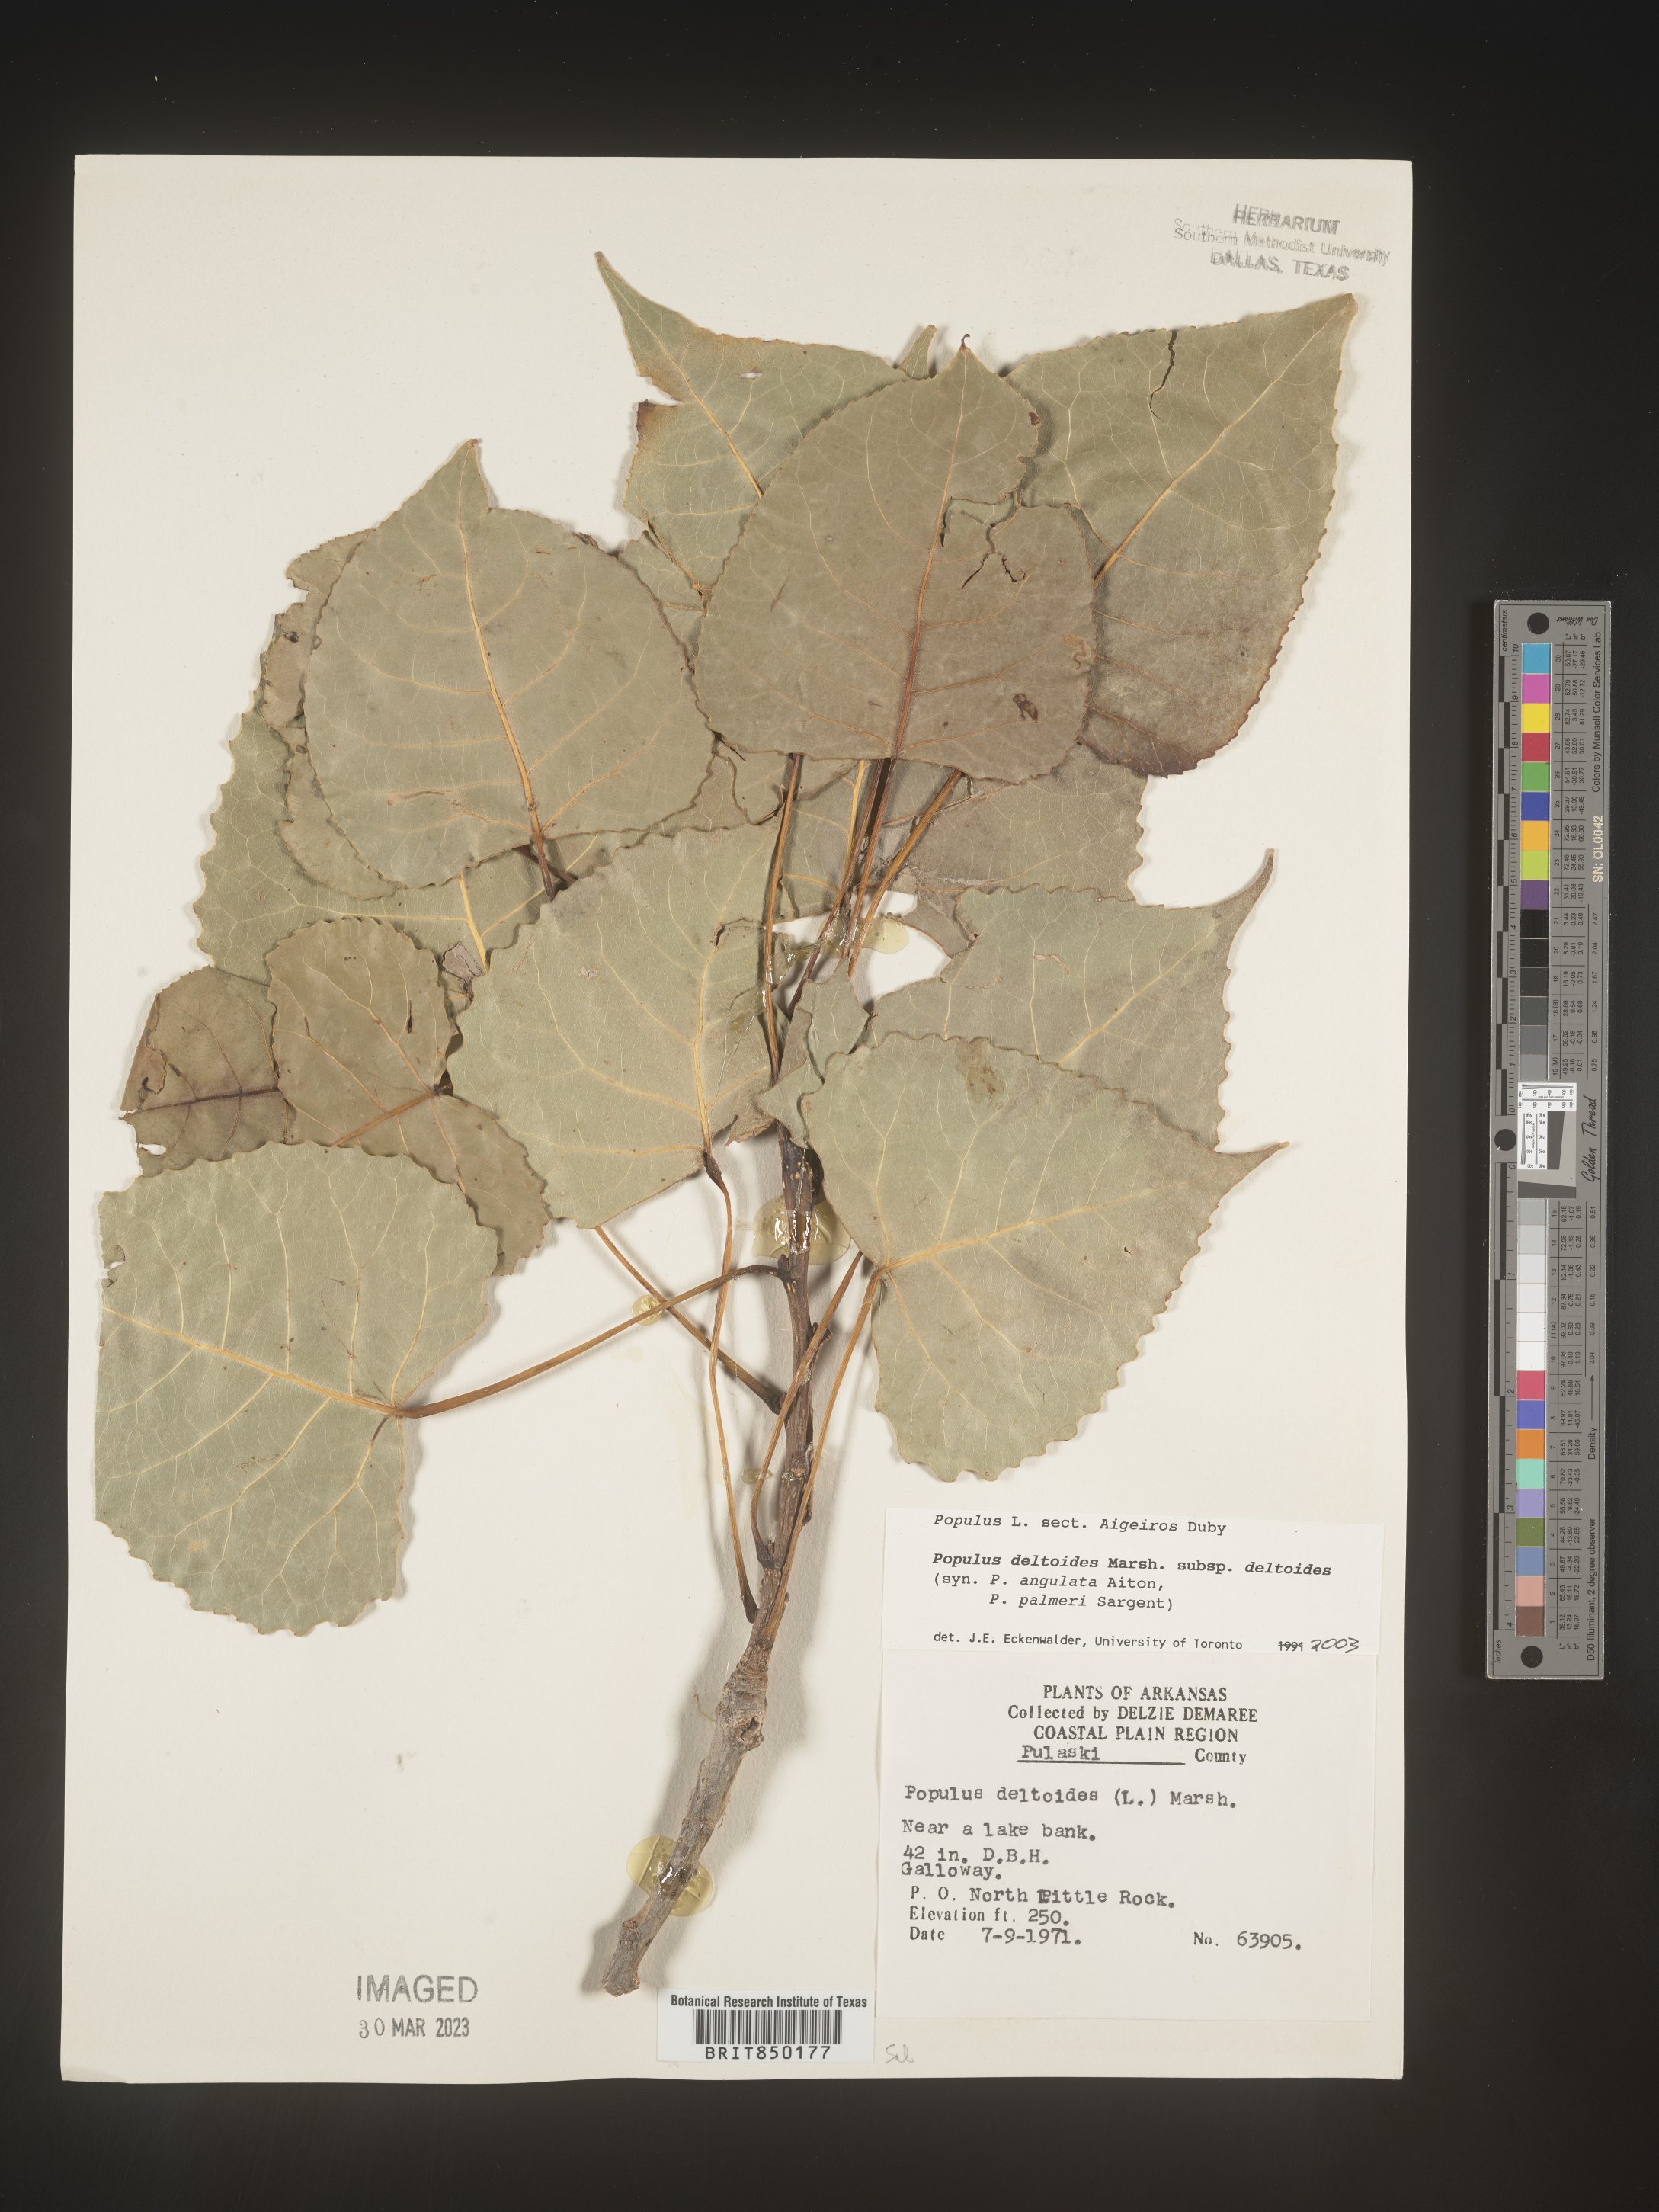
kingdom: Plantae
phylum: Tracheophyta
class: Magnoliopsida
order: Malpighiales
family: Salicaceae
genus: Populus
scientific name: Populus deltoides
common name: Eastern cottonwood
